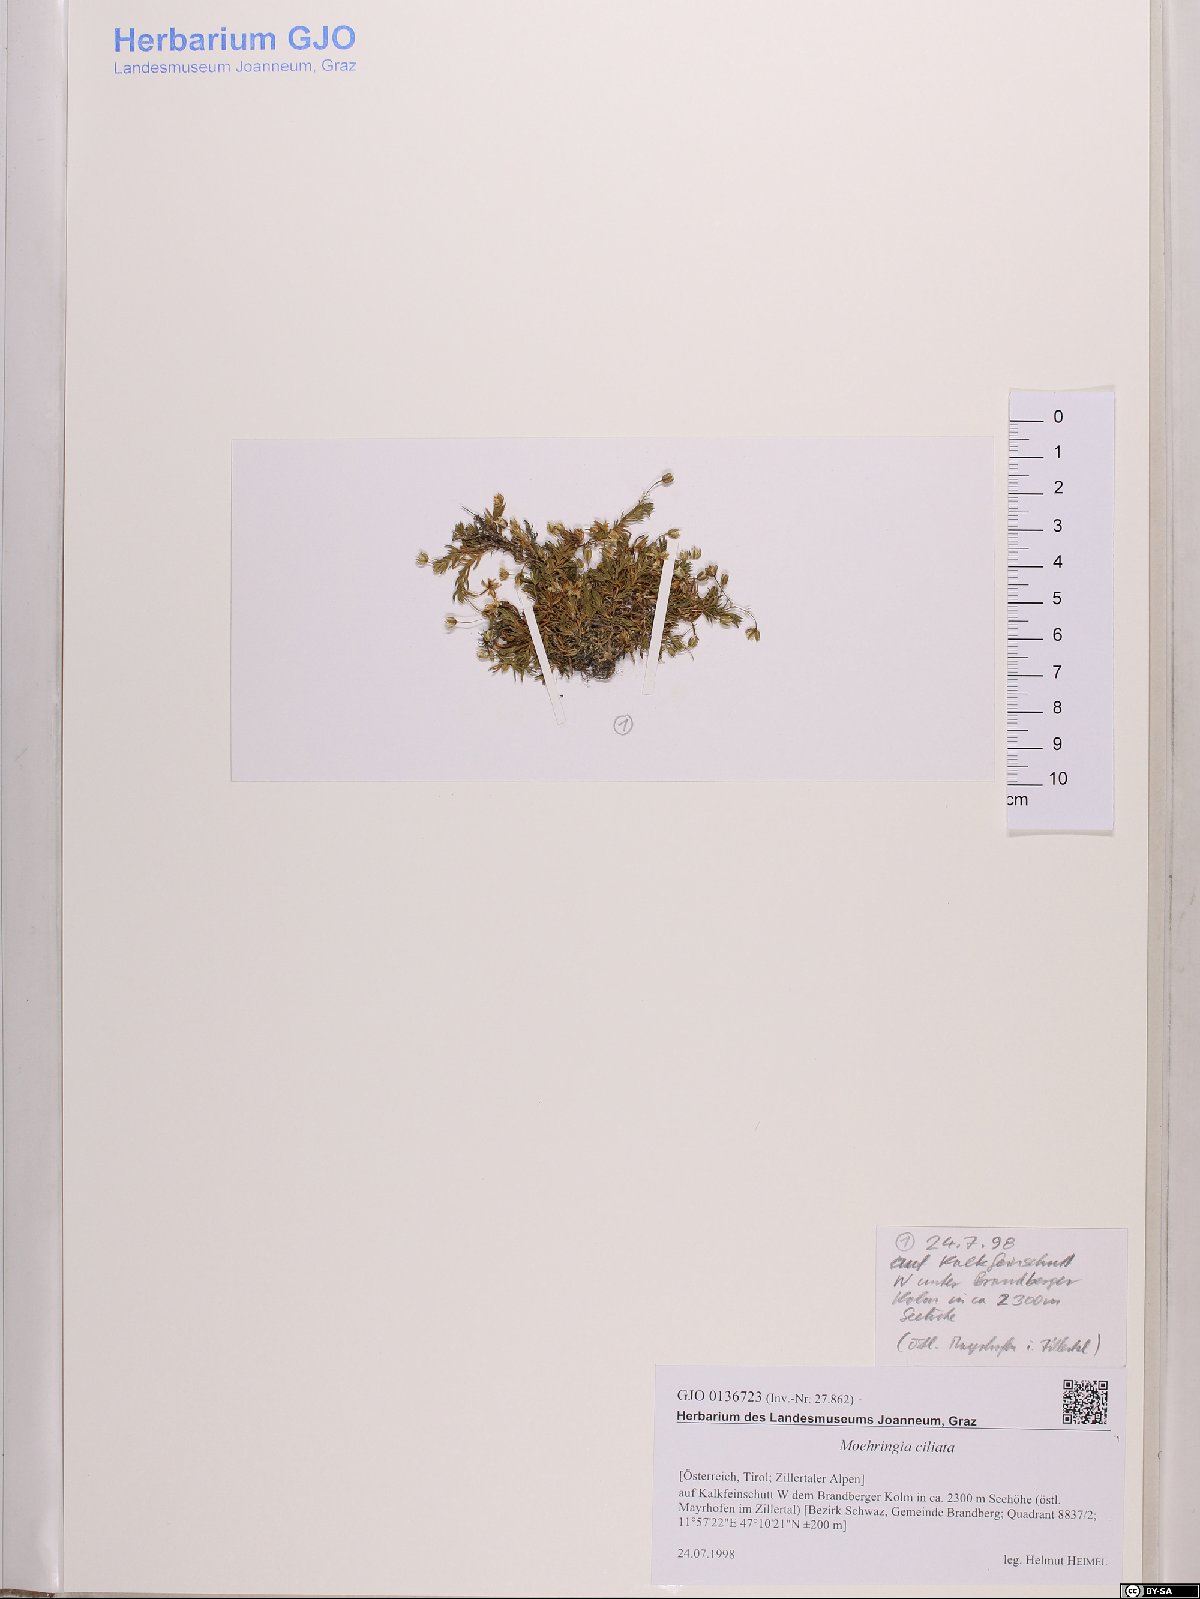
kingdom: Plantae
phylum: Tracheophyta
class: Magnoliopsida
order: Caryophyllales
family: Caryophyllaceae
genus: Moehringia
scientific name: Moehringia ciliata
